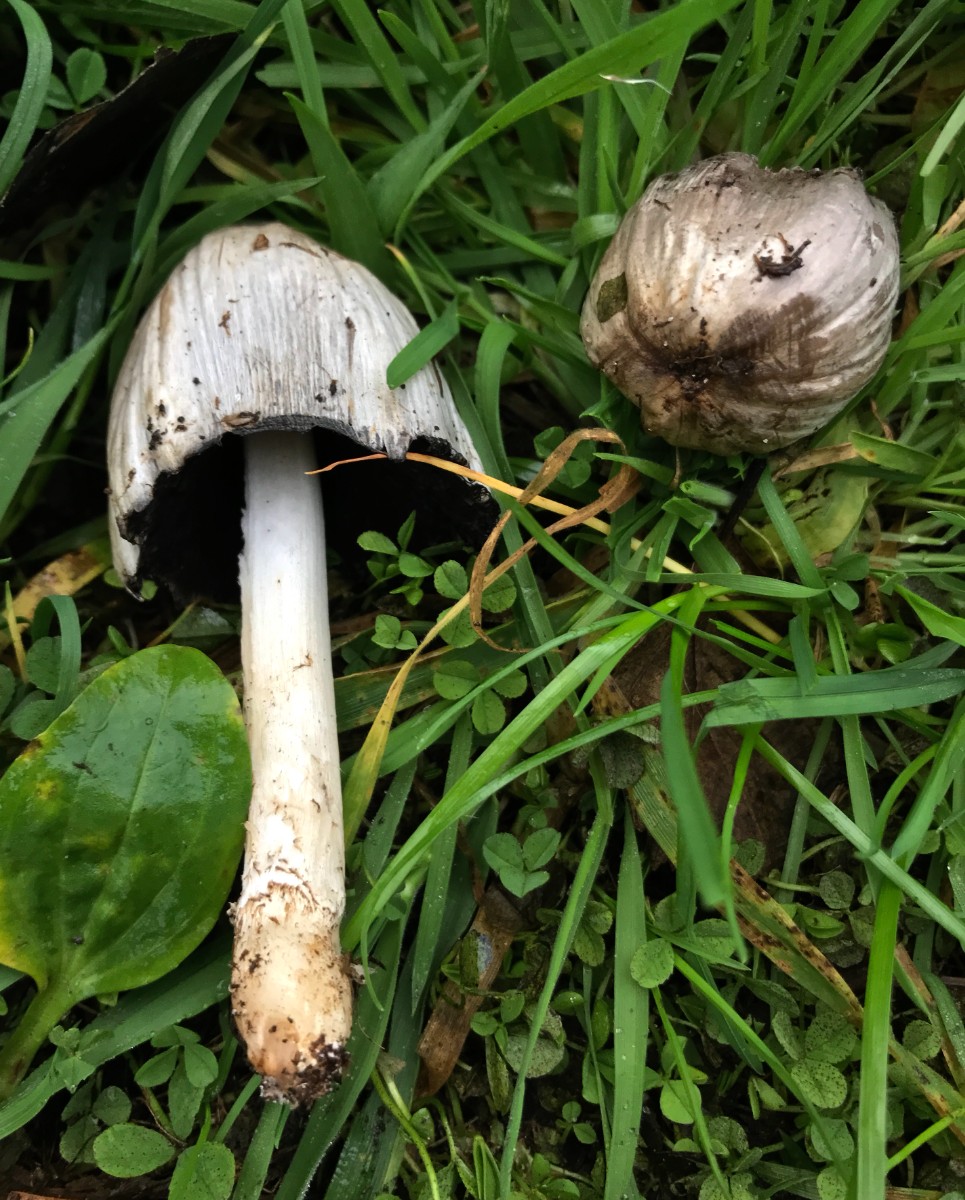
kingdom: Fungi
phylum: Basidiomycota
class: Agaricomycetes
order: Agaricales
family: Psathyrellaceae
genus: Coprinopsis
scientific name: Coprinopsis atramentaria
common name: almindelig blækhat
